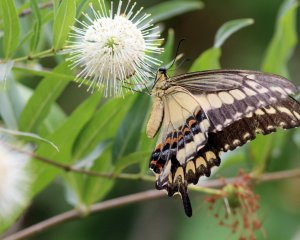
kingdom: Animalia
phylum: Arthropoda
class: Insecta
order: Lepidoptera
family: Papilionidae
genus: Papilio
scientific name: Papilio ornythion
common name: Ornythion Swallowtail
